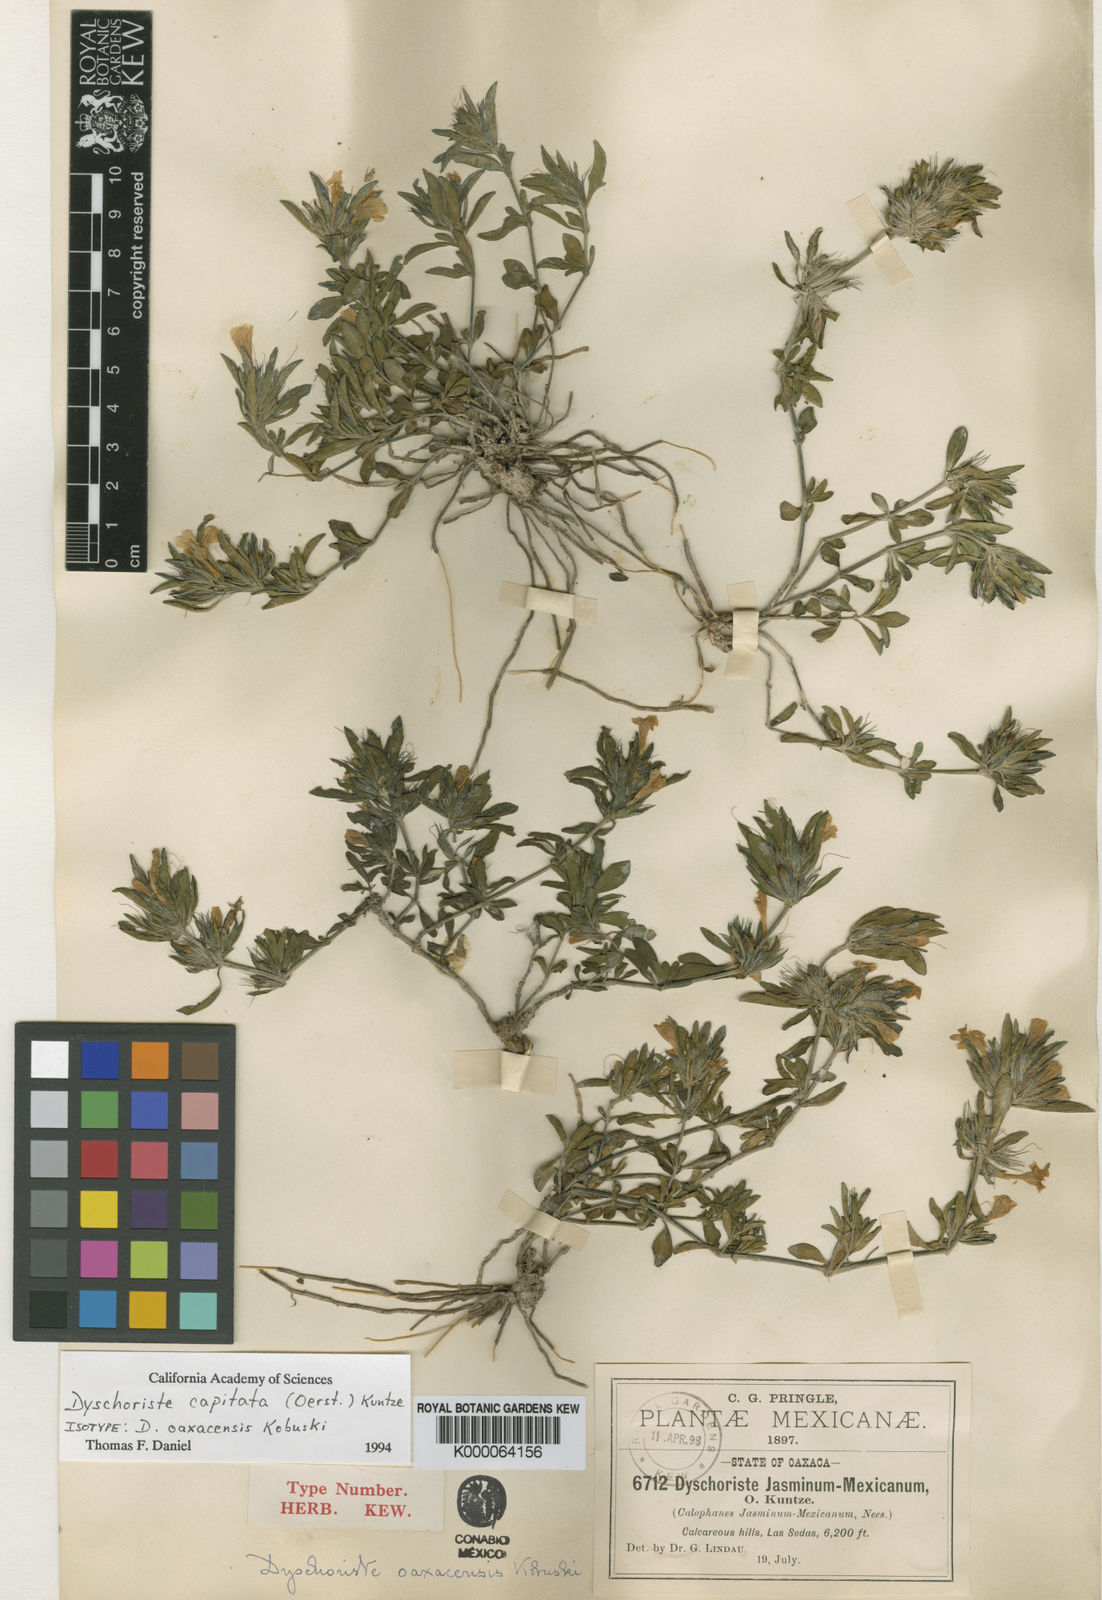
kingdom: Plantae
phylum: Tracheophyta
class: Magnoliopsida
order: Lamiales
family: Acanthaceae
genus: Dyschoriste
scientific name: Dyschoriste capitata
